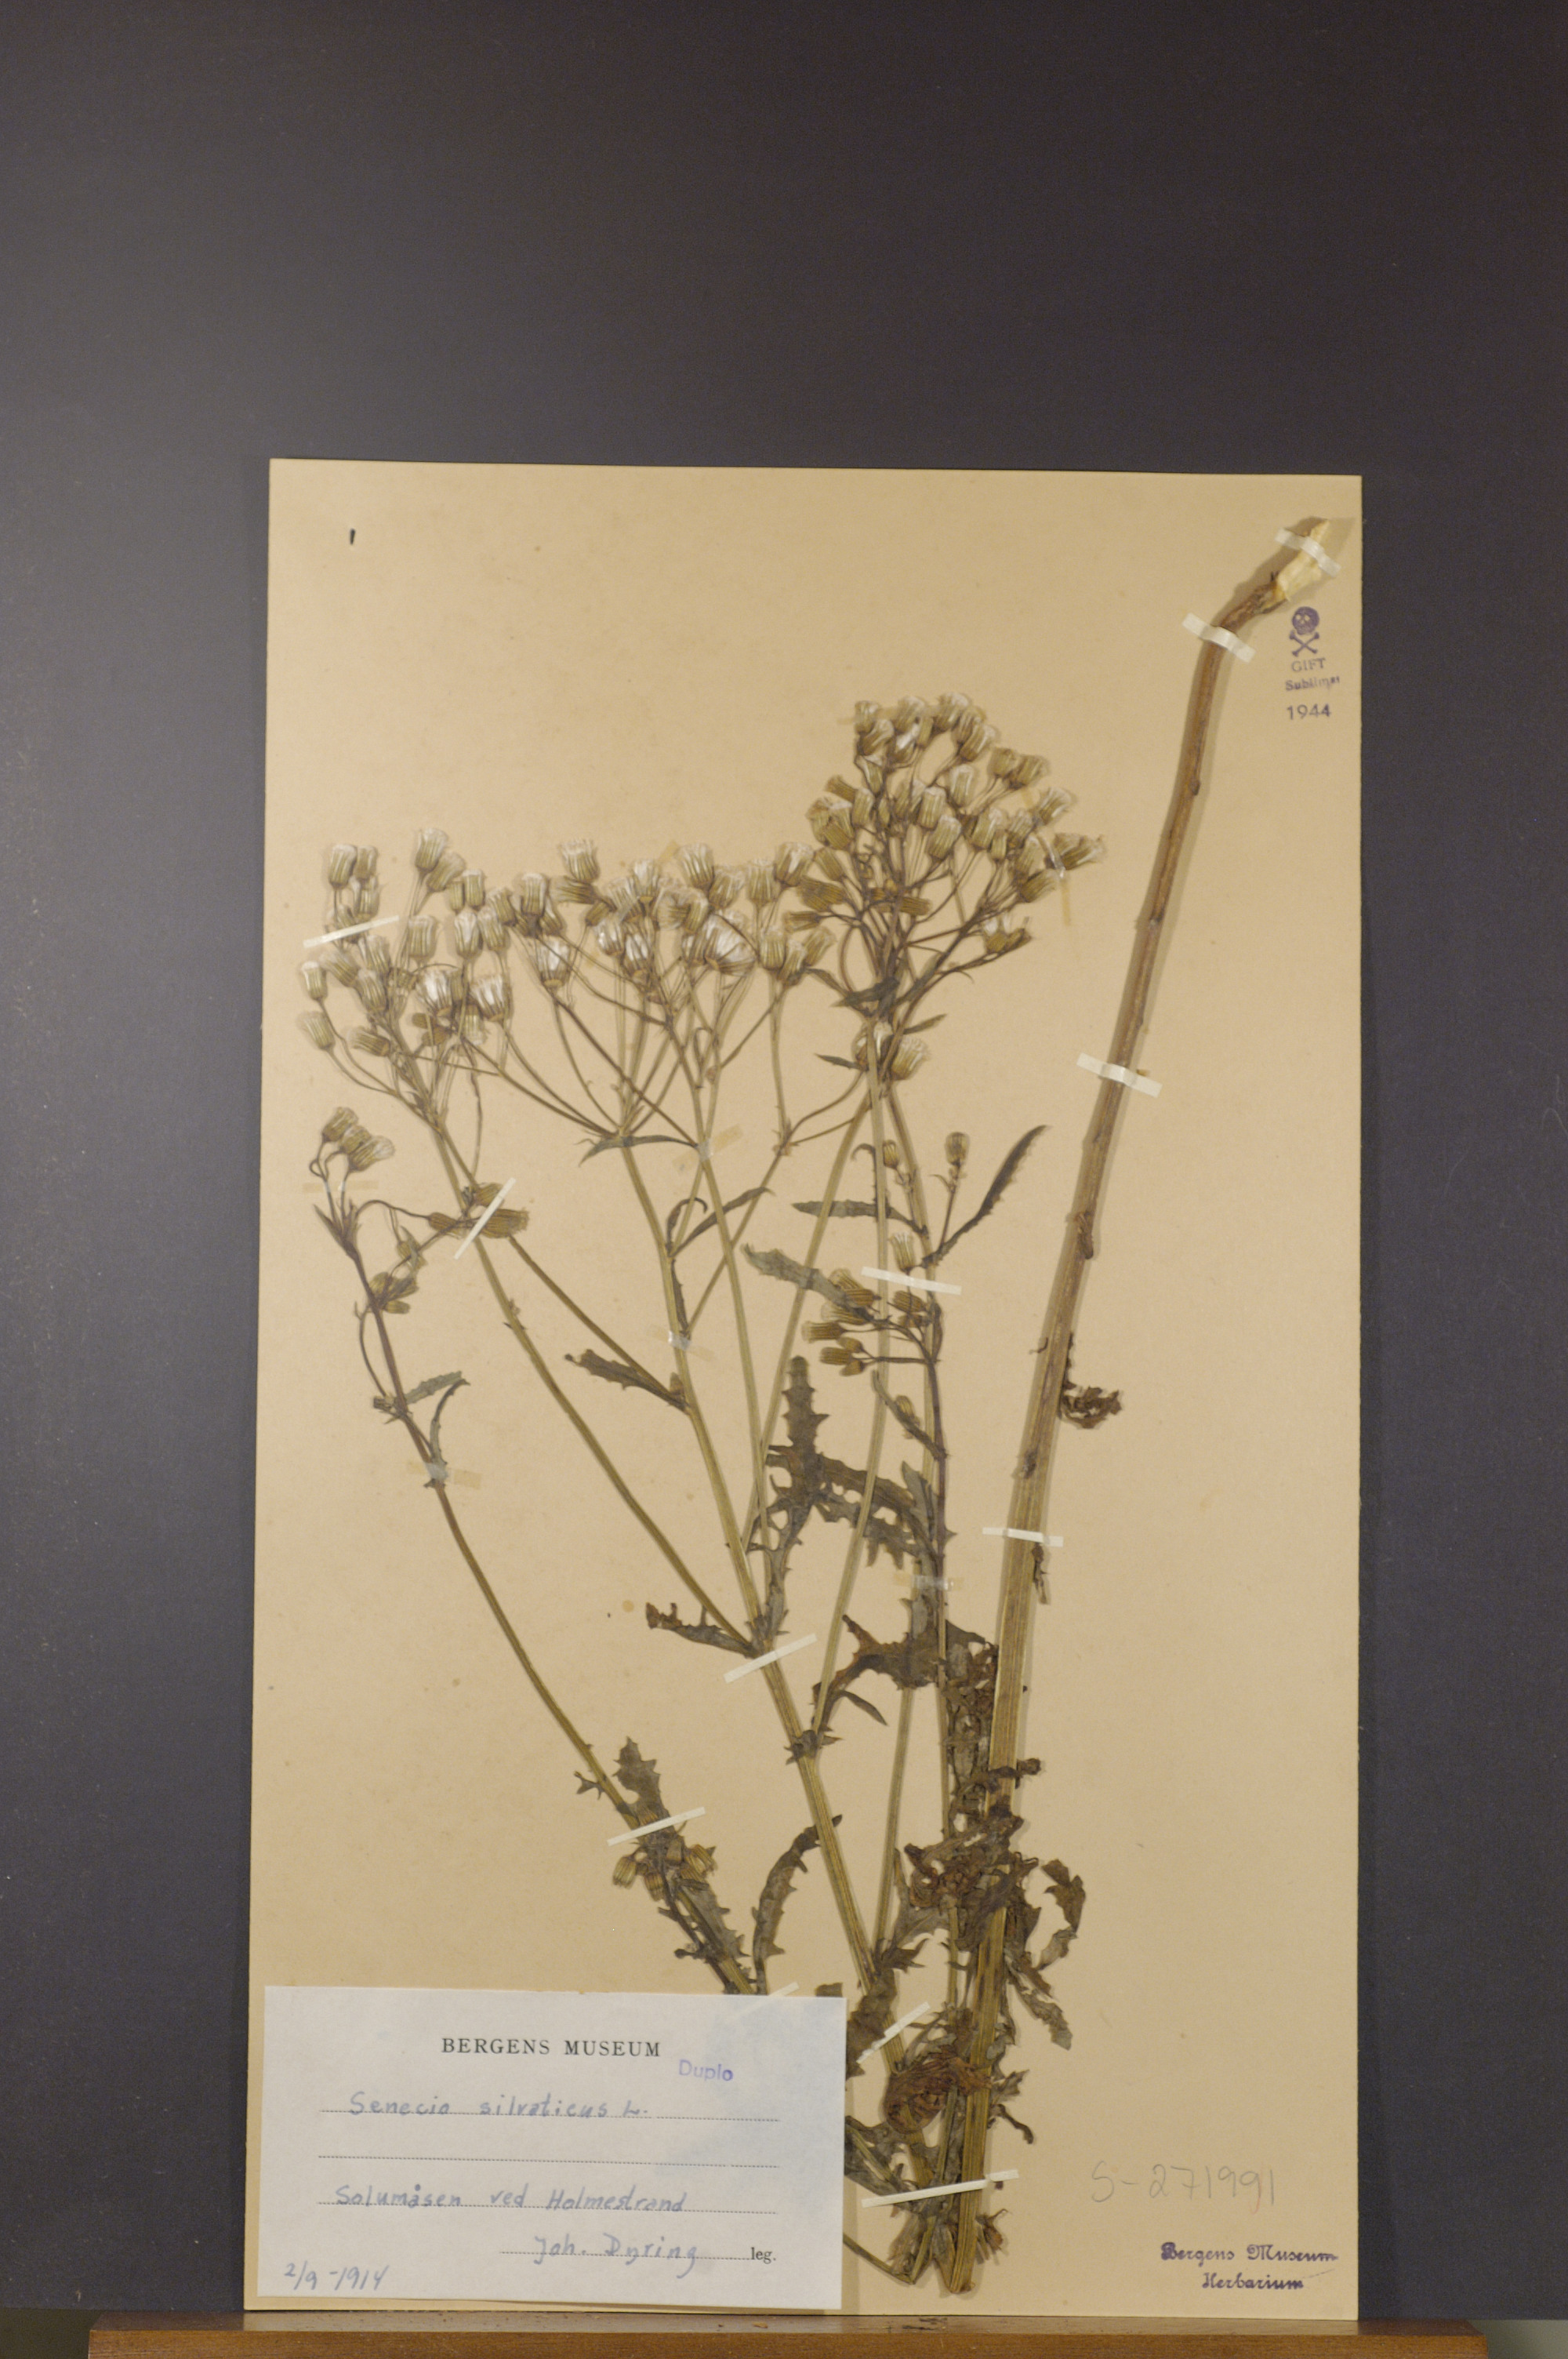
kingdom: Plantae
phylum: Tracheophyta
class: Magnoliopsida
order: Asterales
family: Asteraceae
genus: Senecio
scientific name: Senecio sylvaticus
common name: Woodland ragwort
